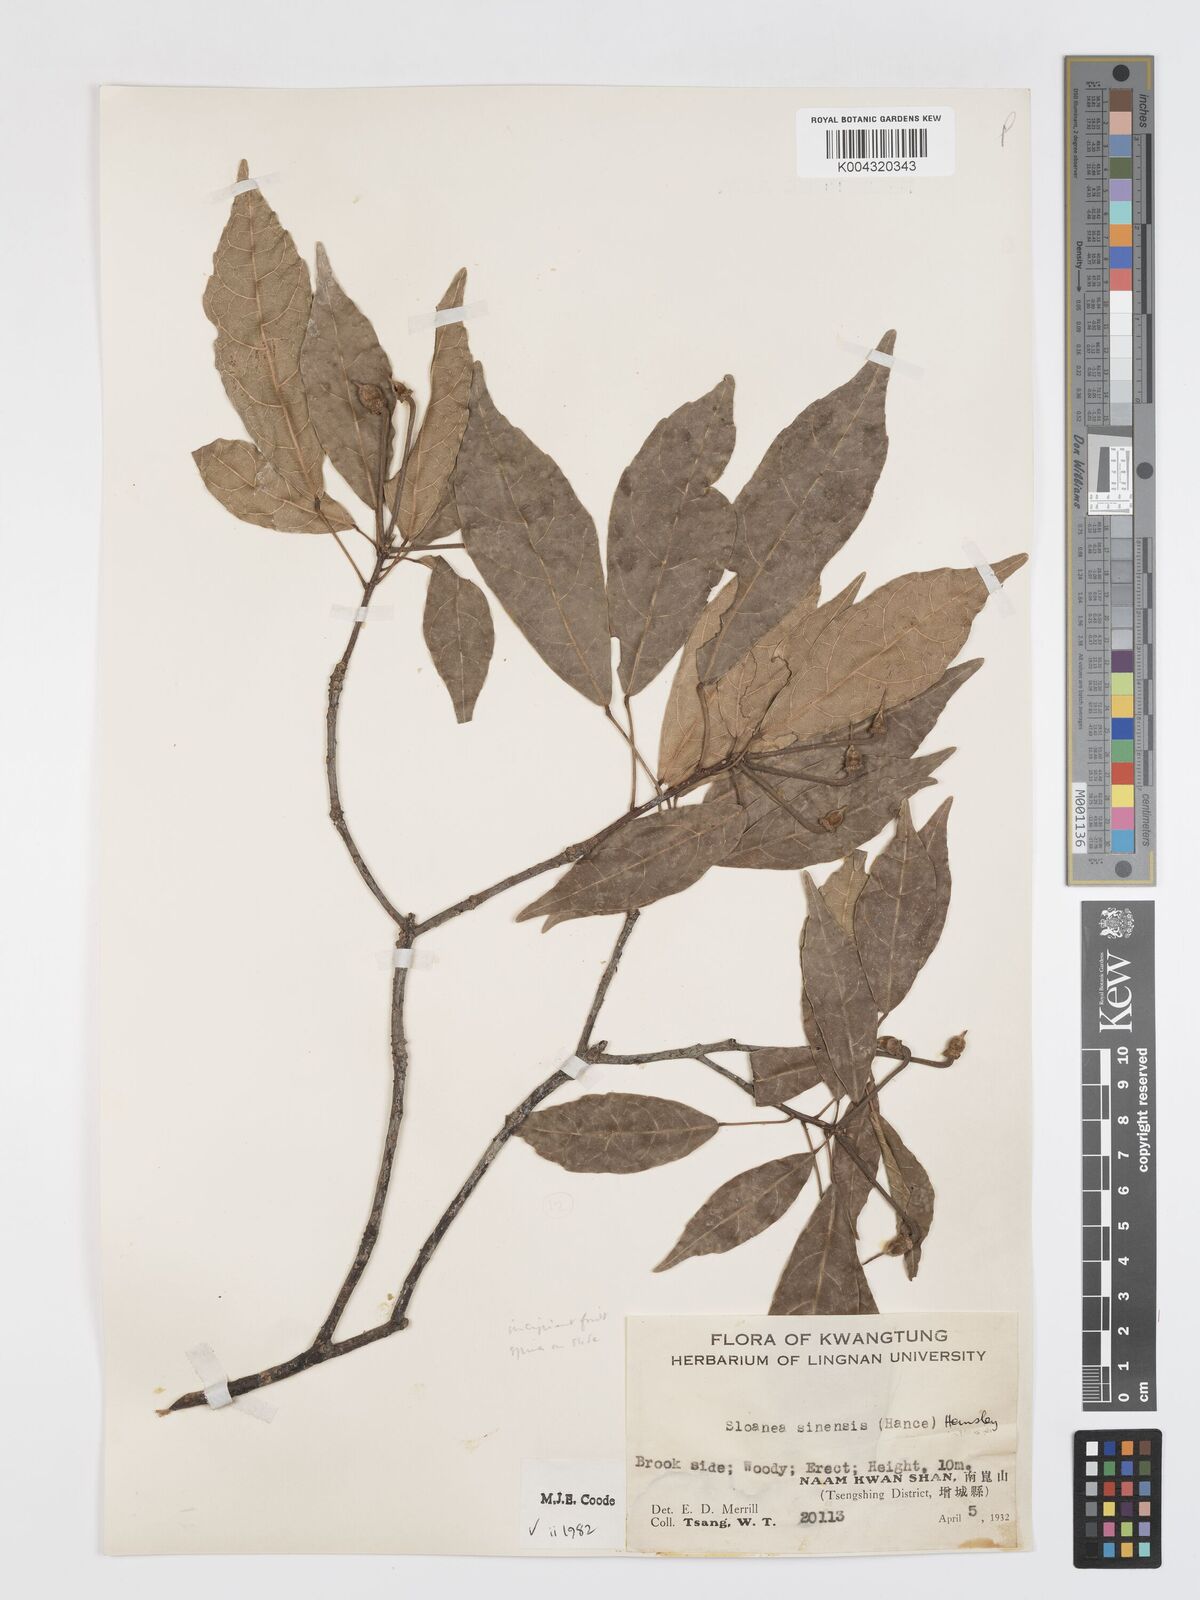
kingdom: Plantae
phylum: Tracheophyta
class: Magnoliopsida
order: Oxalidales
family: Elaeocarpaceae
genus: Sloanea
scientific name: Sloanea sinensis
